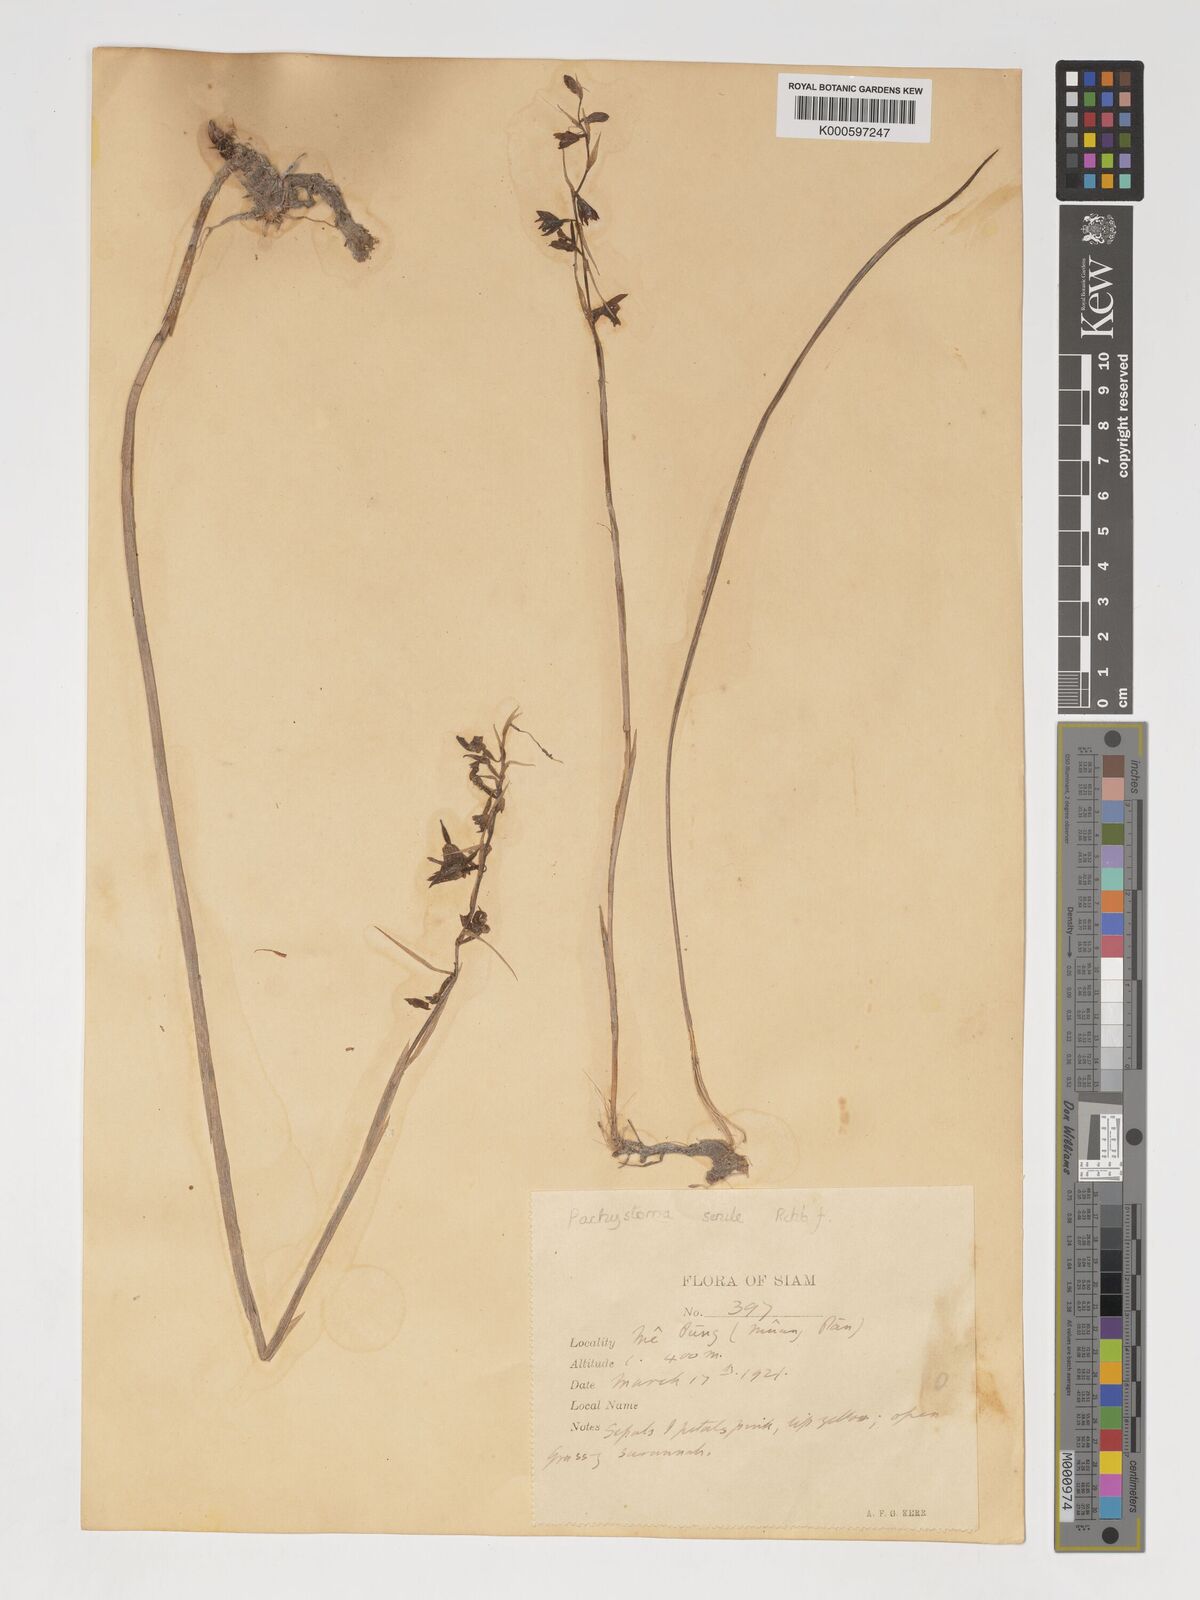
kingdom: Plantae
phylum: Tracheophyta
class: Liliopsida
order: Asparagales
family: Orchidaceae
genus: Pachystoma
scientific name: Pachystoma pubescens
